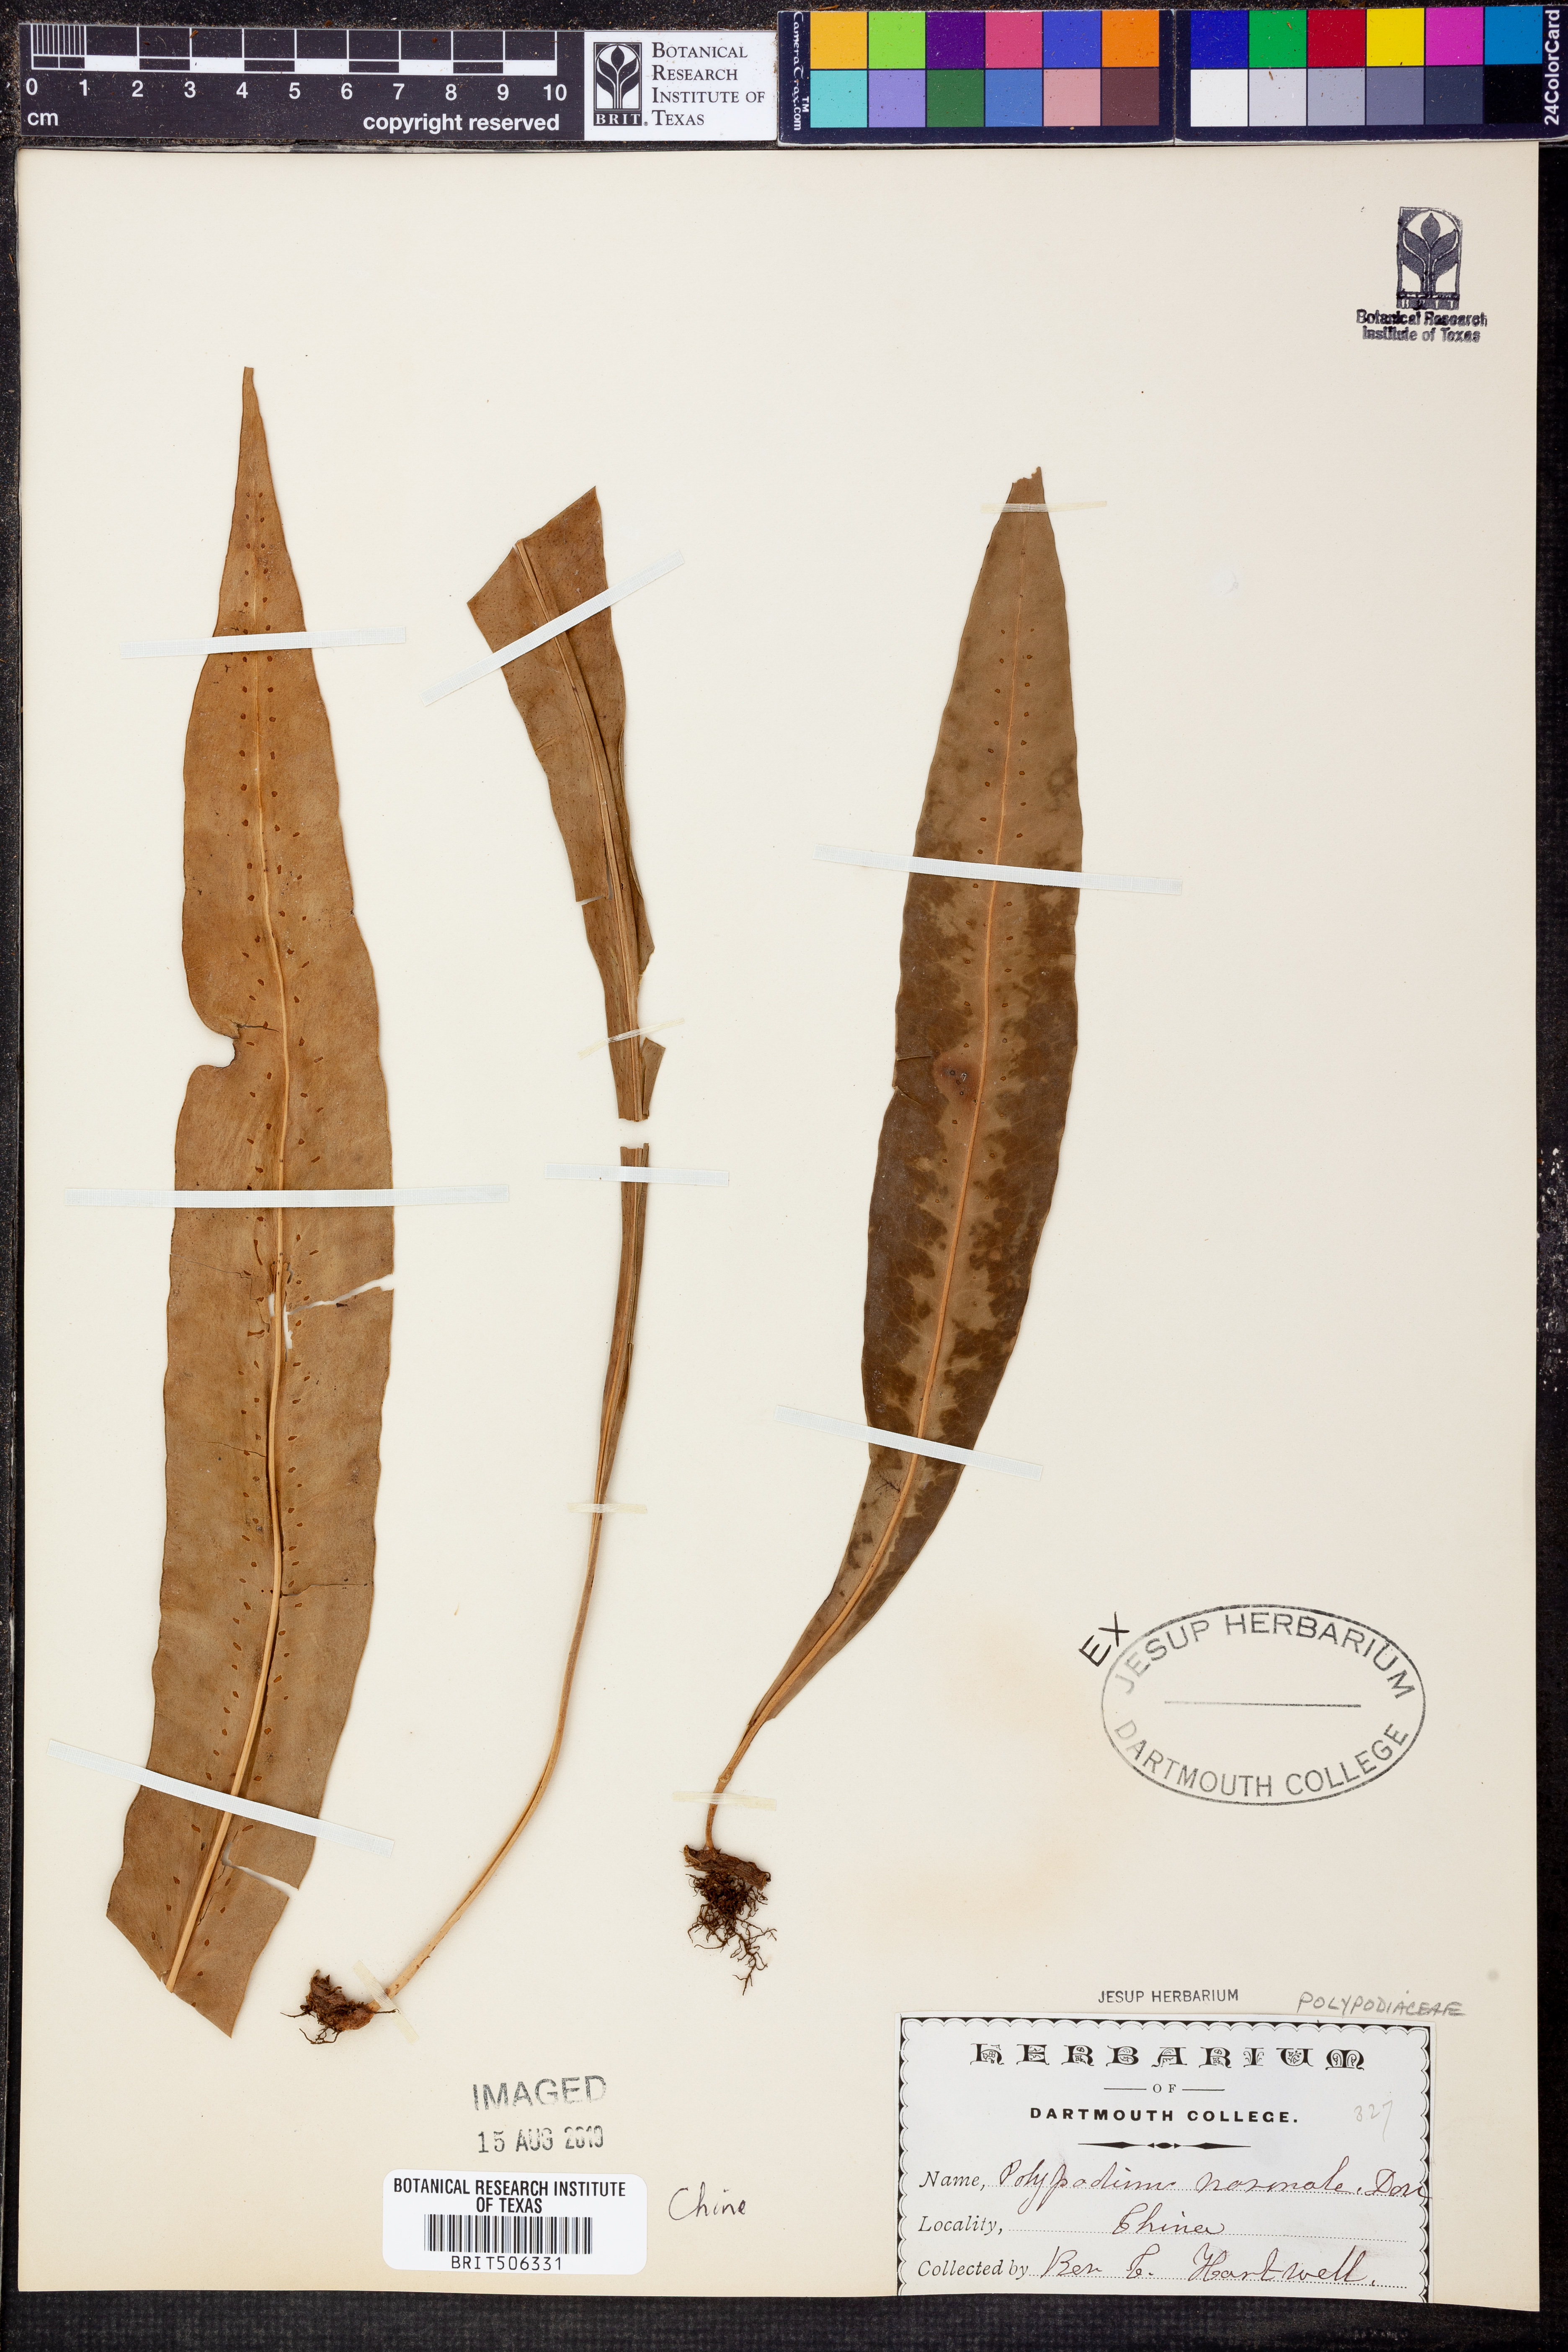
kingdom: Plantae
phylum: Tracheophyta
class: Polypodiopsida
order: Polypodiales
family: Polypodiaceae
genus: Lepisorus
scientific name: Lepisorus normalis
